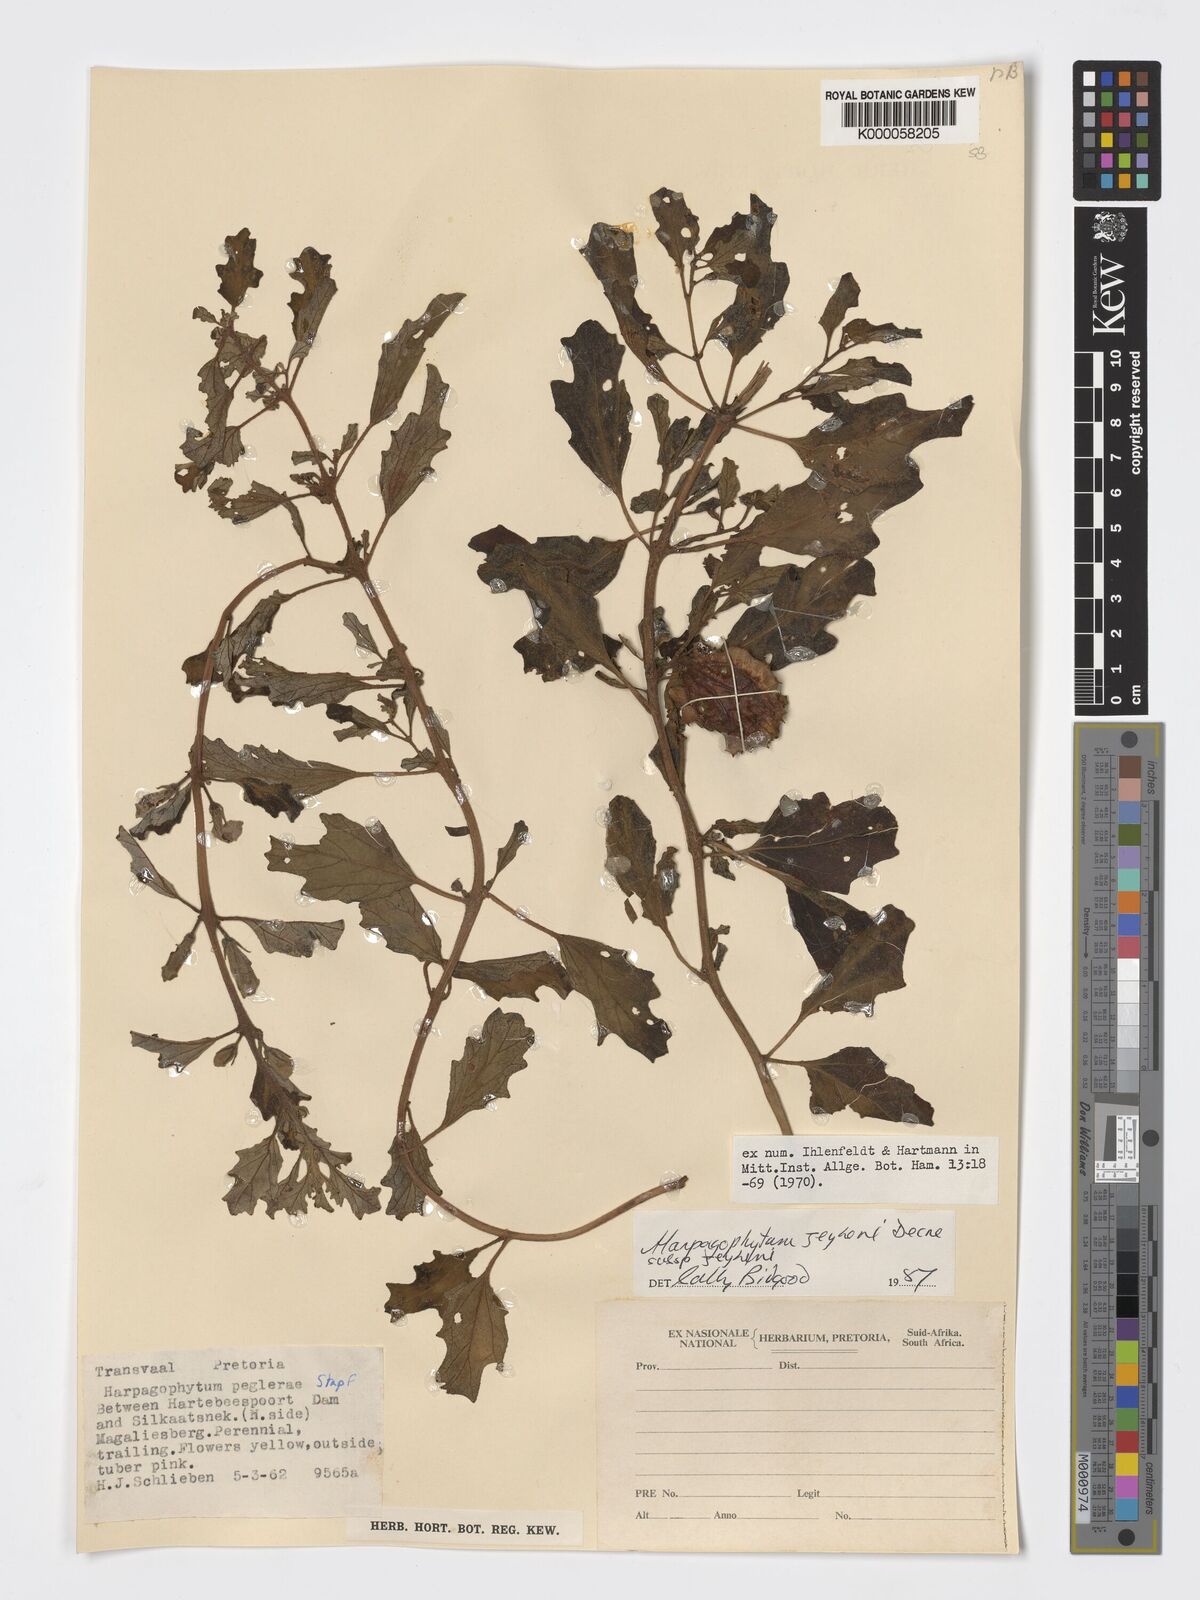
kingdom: Plantae
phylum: Tracheophyta
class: Magnoliopsida
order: Lamiales
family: Pedaliaceae
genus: Harpagophytum
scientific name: Harpagophytum zeyheri
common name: Grappleplant
